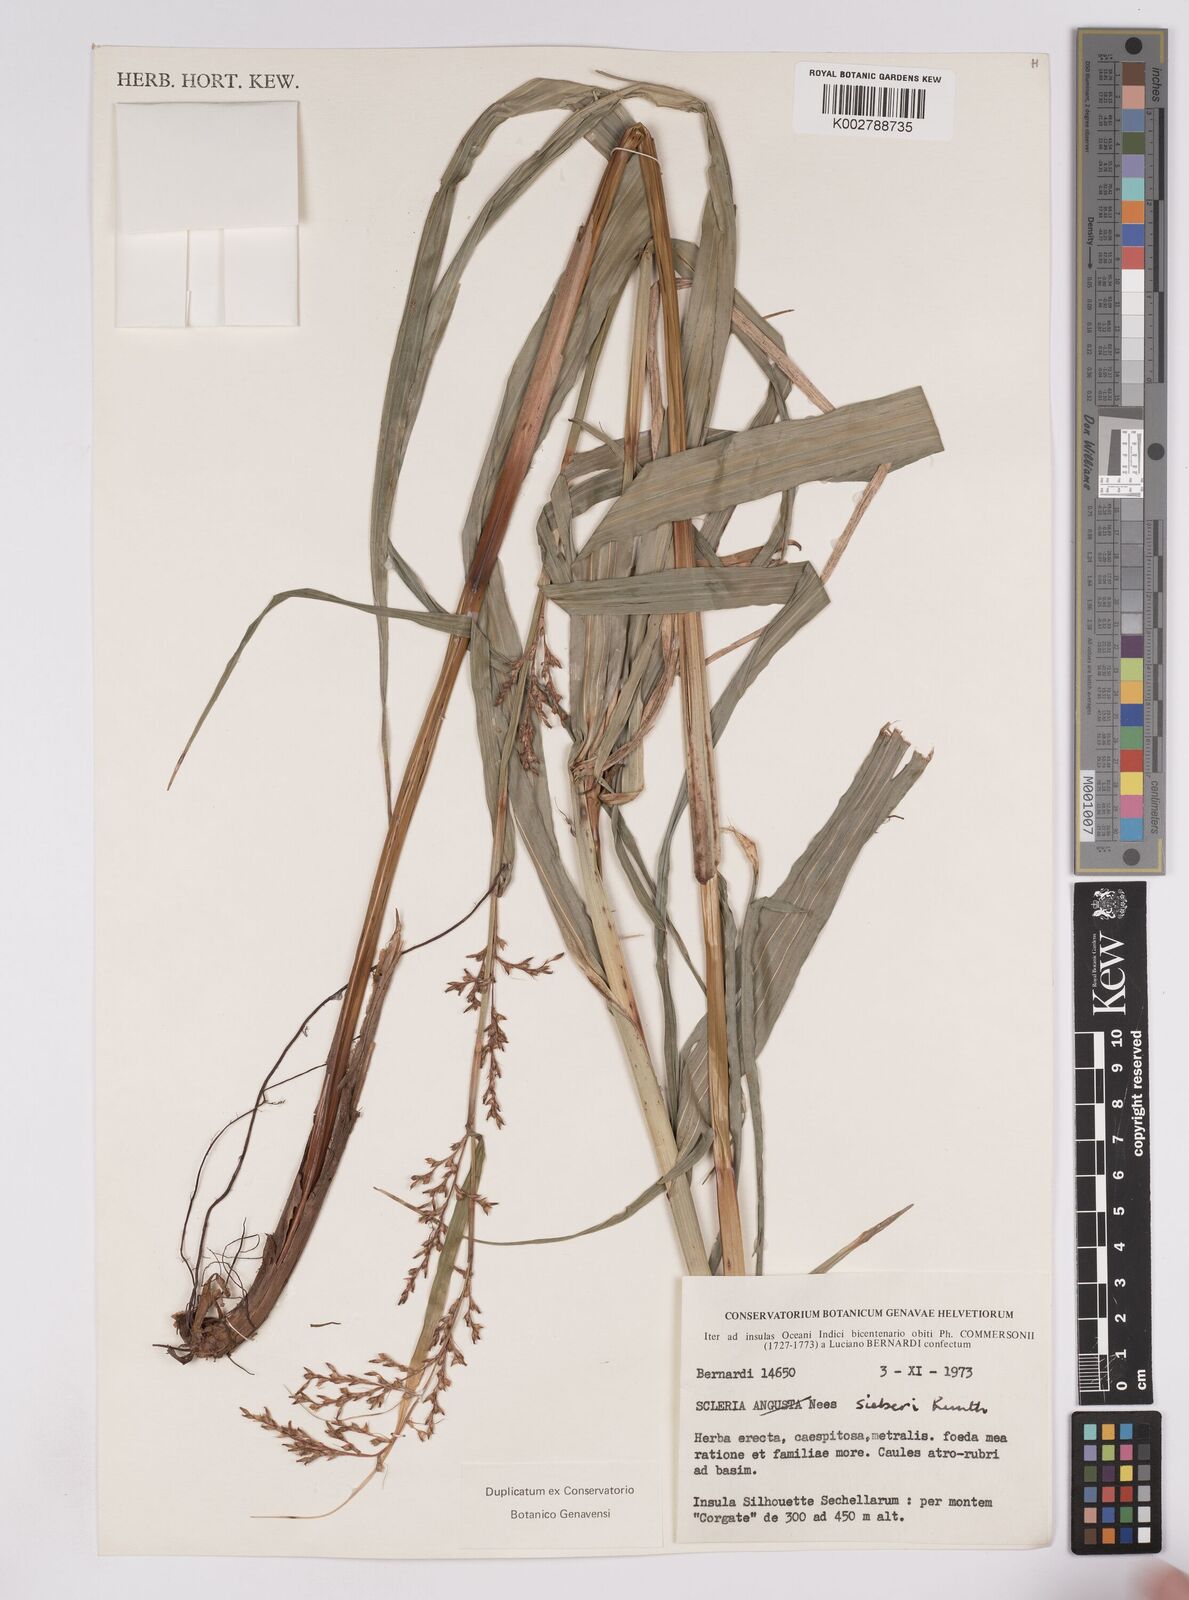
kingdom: Plantae
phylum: Tracheophyta
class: Liliopsida
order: Poales
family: Cyperaceae
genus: Scleria
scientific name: Scleria gaertneri
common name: Cortadera blanca
